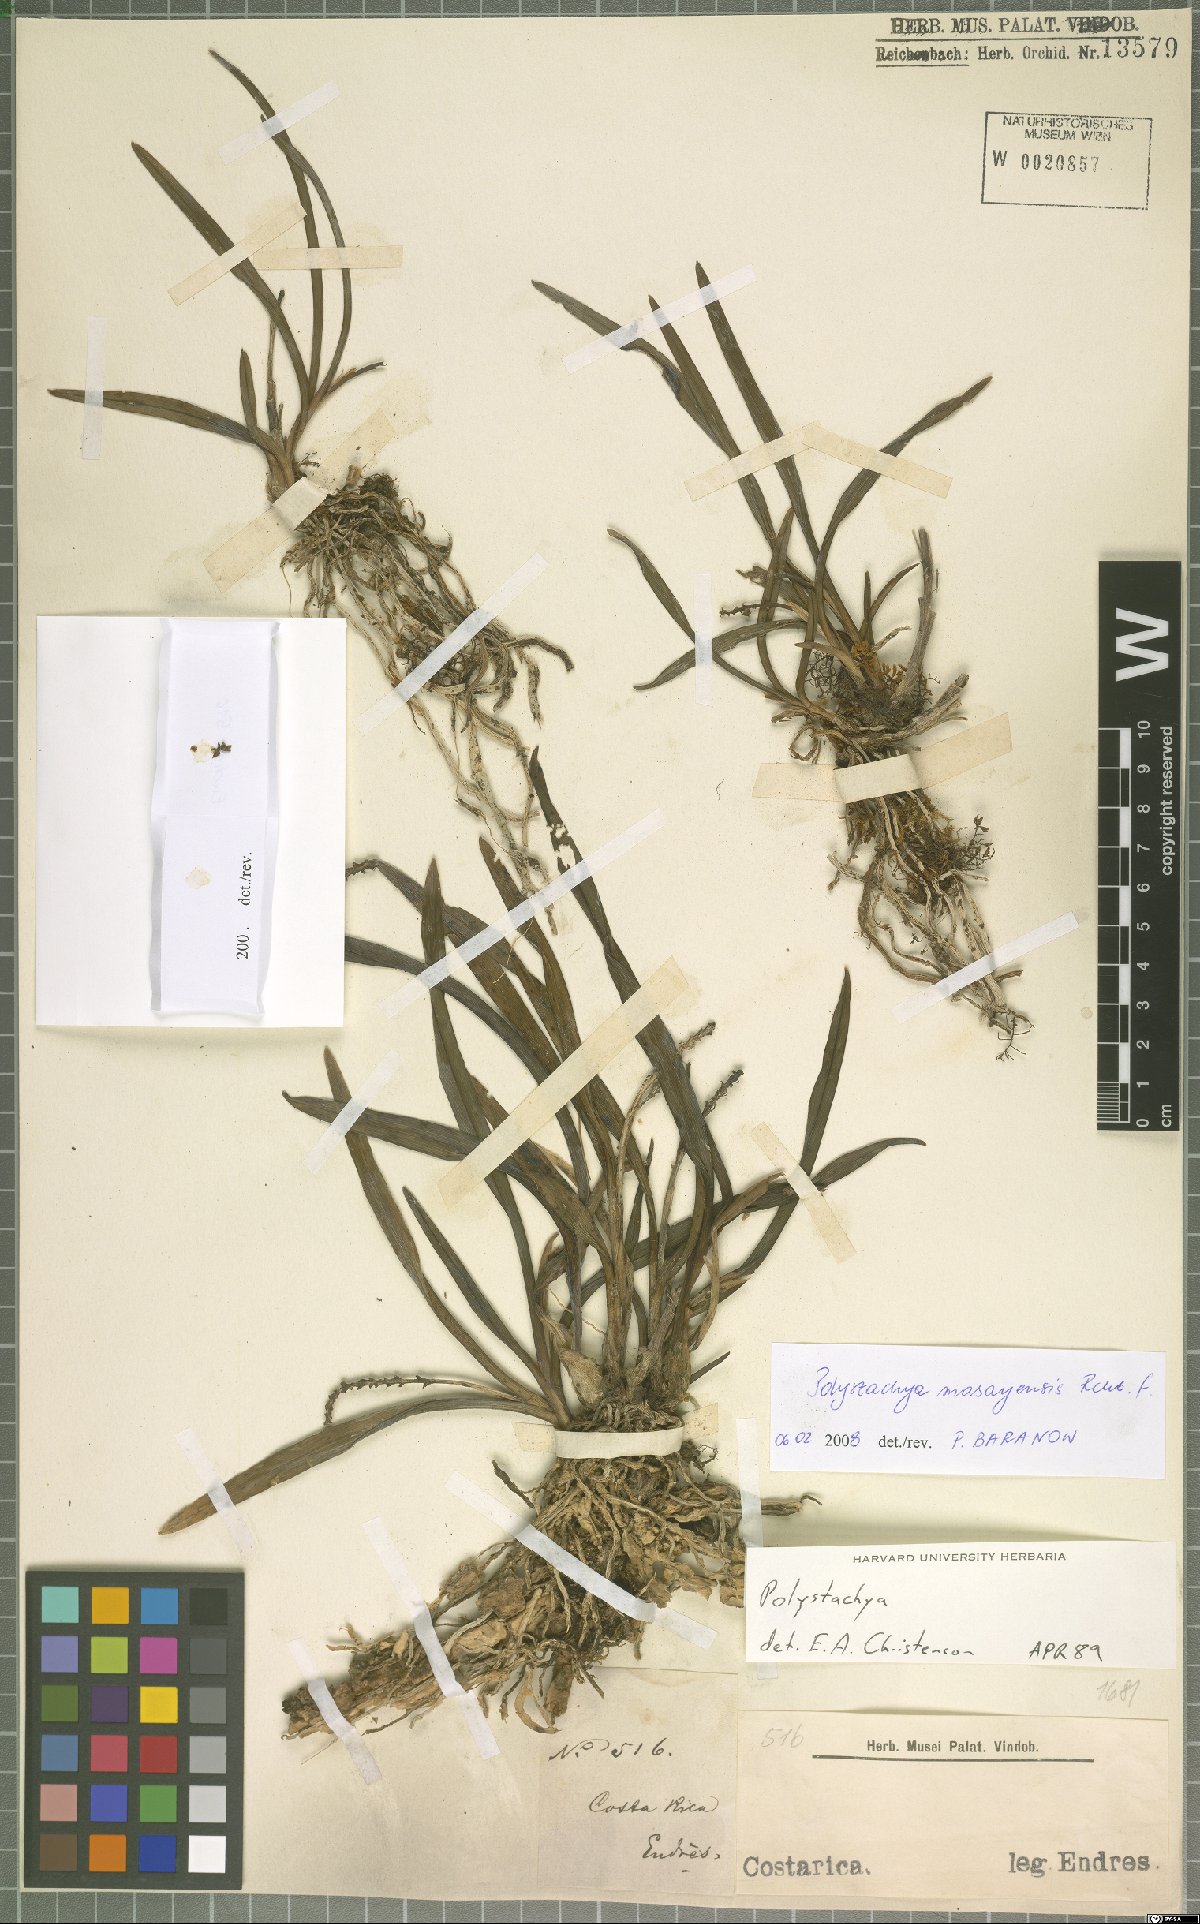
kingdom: Plantae
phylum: Tracheophyta
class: Liliopsida
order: Asparagales
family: Orchidaceae
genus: Polystachya
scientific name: Polystachya masayensis
